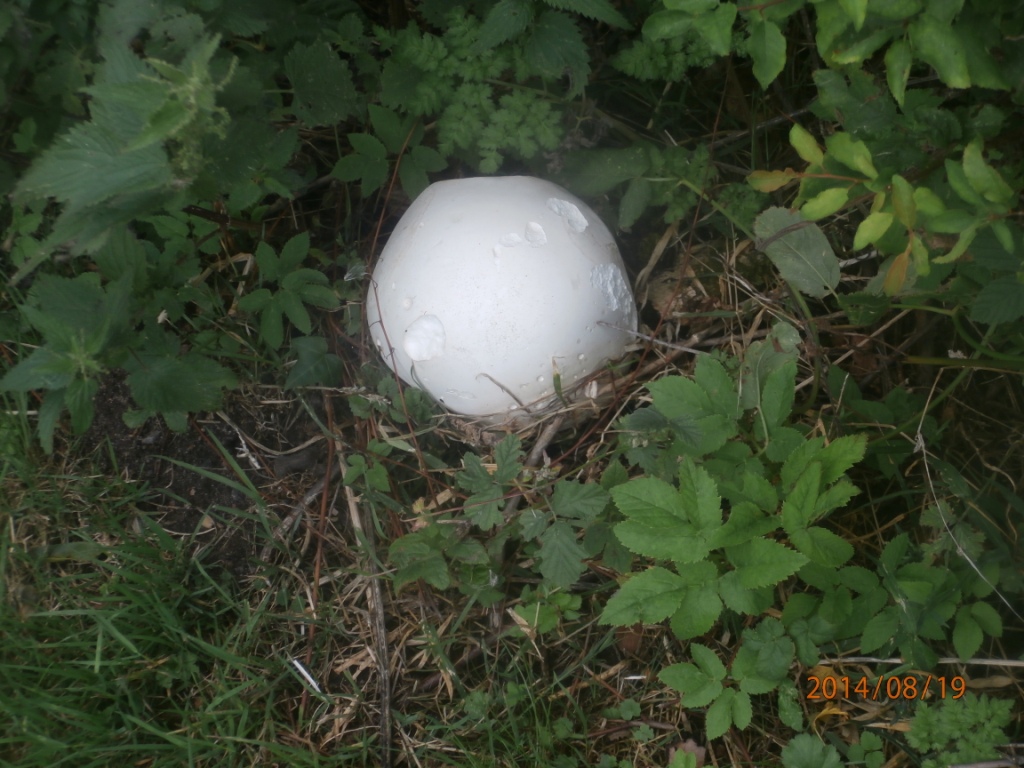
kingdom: Fungi
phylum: Basidiomycota
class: Agaricomycetes
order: Agaricales
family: Lycoperdaceae
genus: Calvatia
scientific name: Calvatia gigantea
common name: kæmpestøvbold
